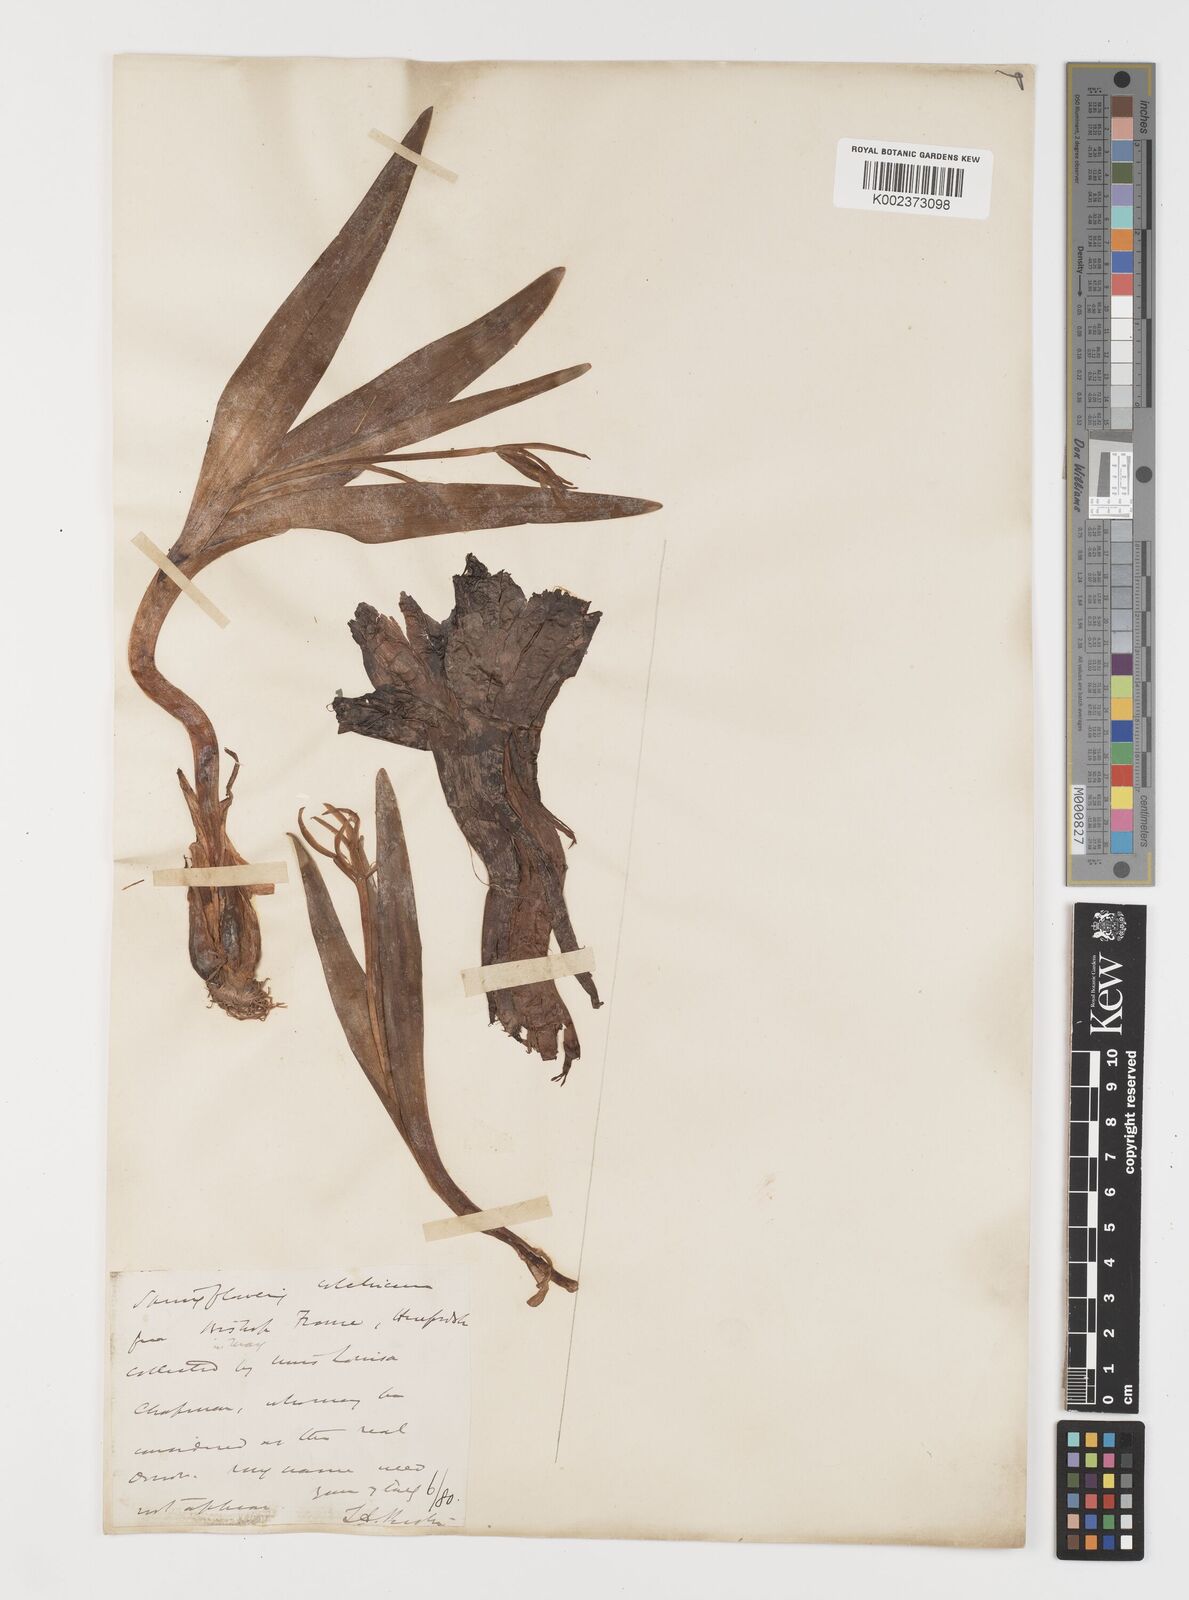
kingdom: Plantae
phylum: Tracheophyta
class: Liliopsida
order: Liliales
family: Colchicaceae
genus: Colchicum
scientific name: Colchicum autumnale
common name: Autumn crocus
